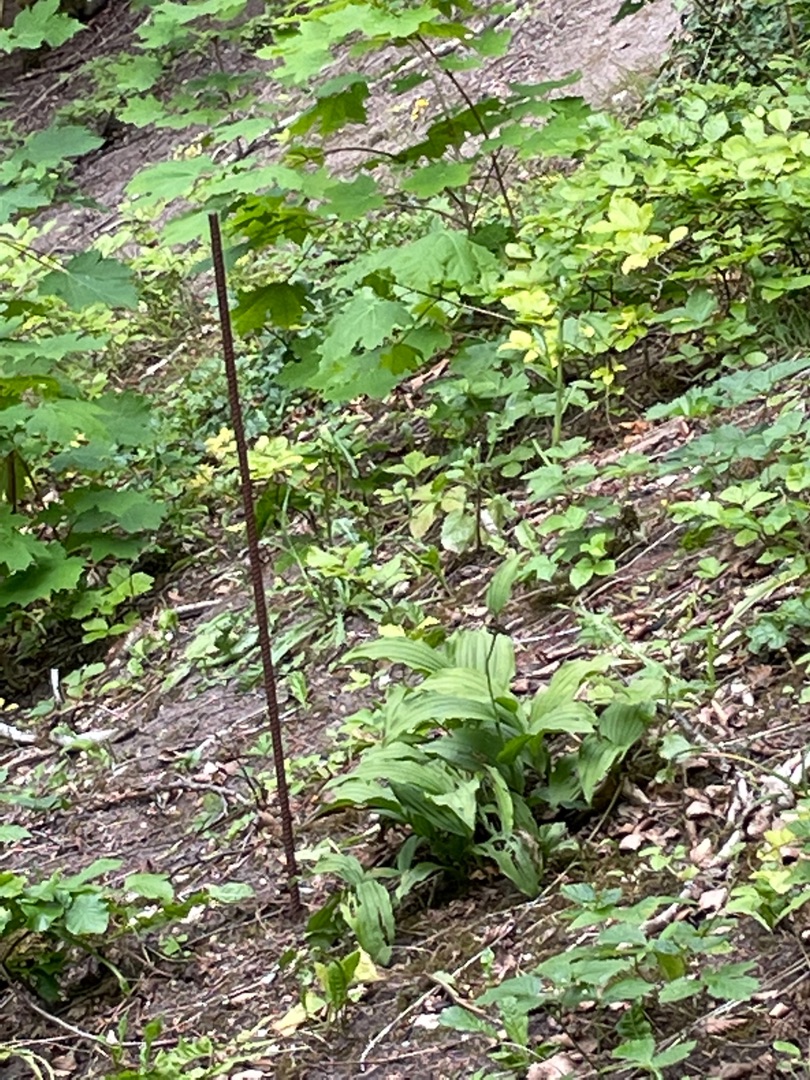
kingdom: Plantae
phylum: Tracheophyta
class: Liliopsida
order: Asparagales
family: Orchidaceae
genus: Cypripedium
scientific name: Cypripedium calceolus
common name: Fruesko
